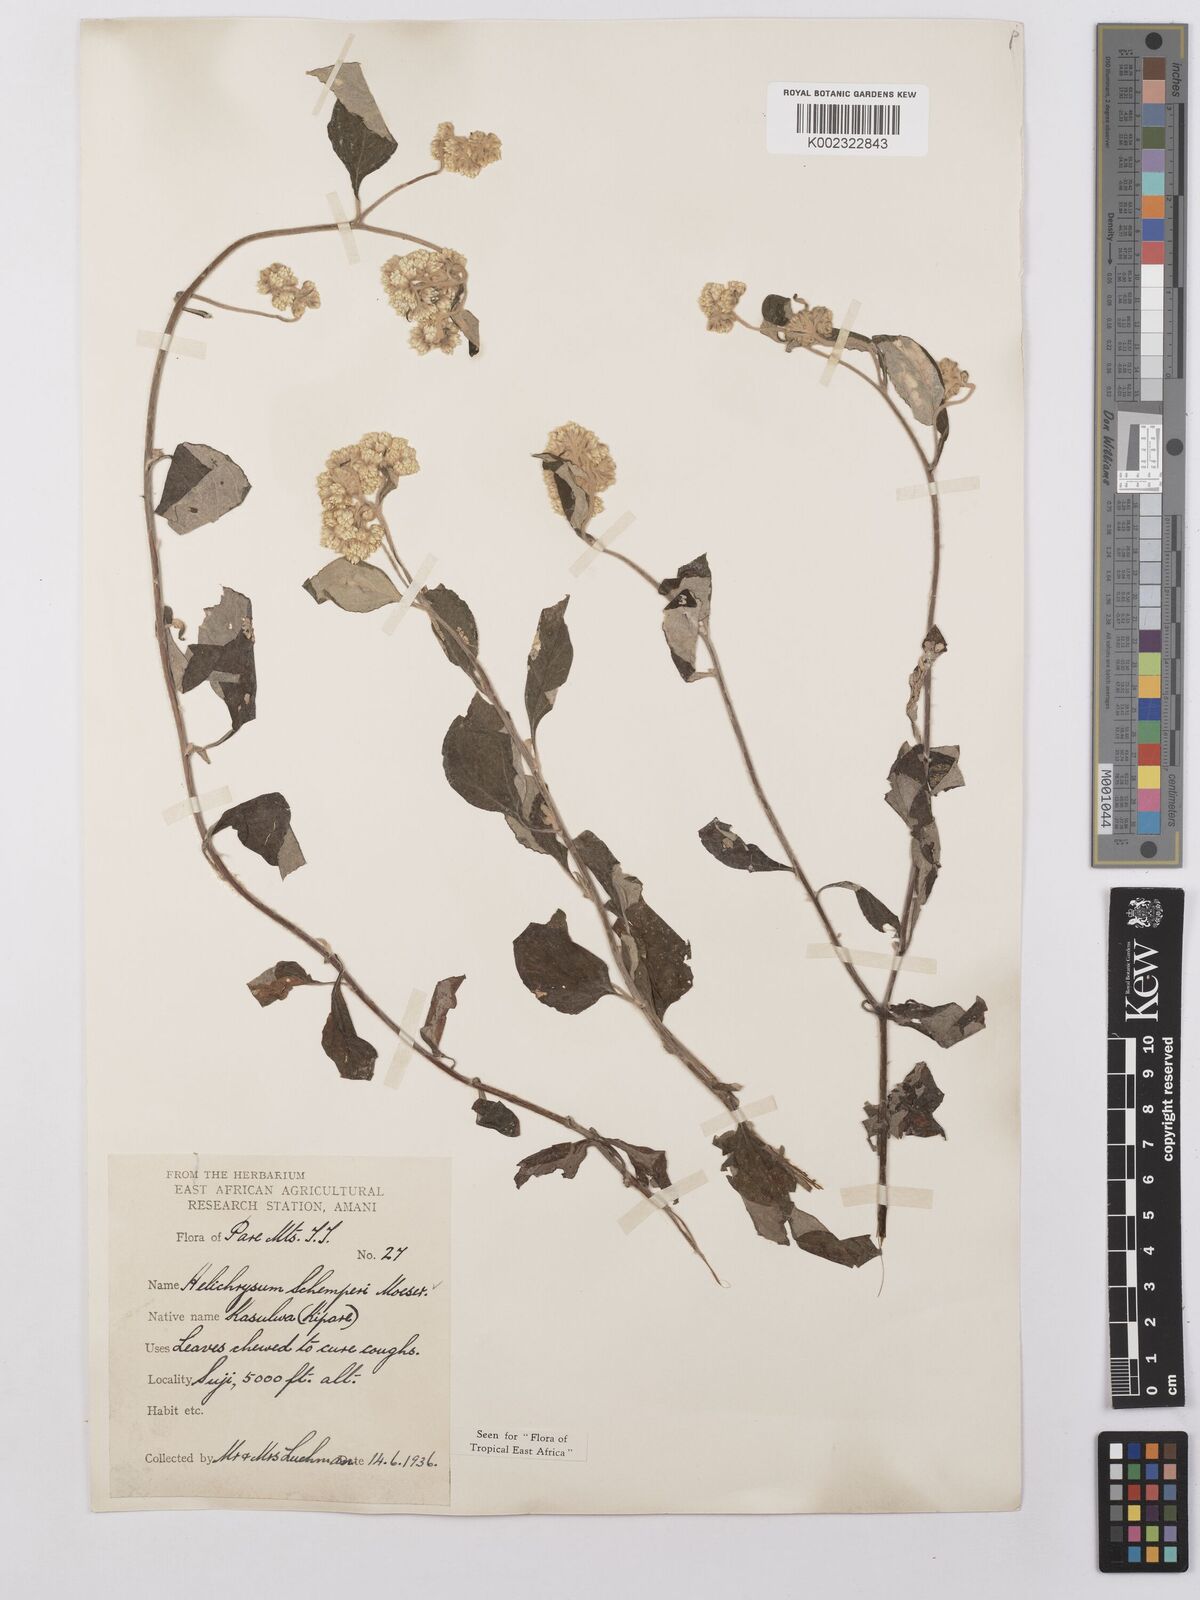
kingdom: Plantae
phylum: Tracheophyta
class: Magnoliopsida
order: Asterales
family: Asteraceae
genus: Helichrysum
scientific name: Helichrysum schimperi
